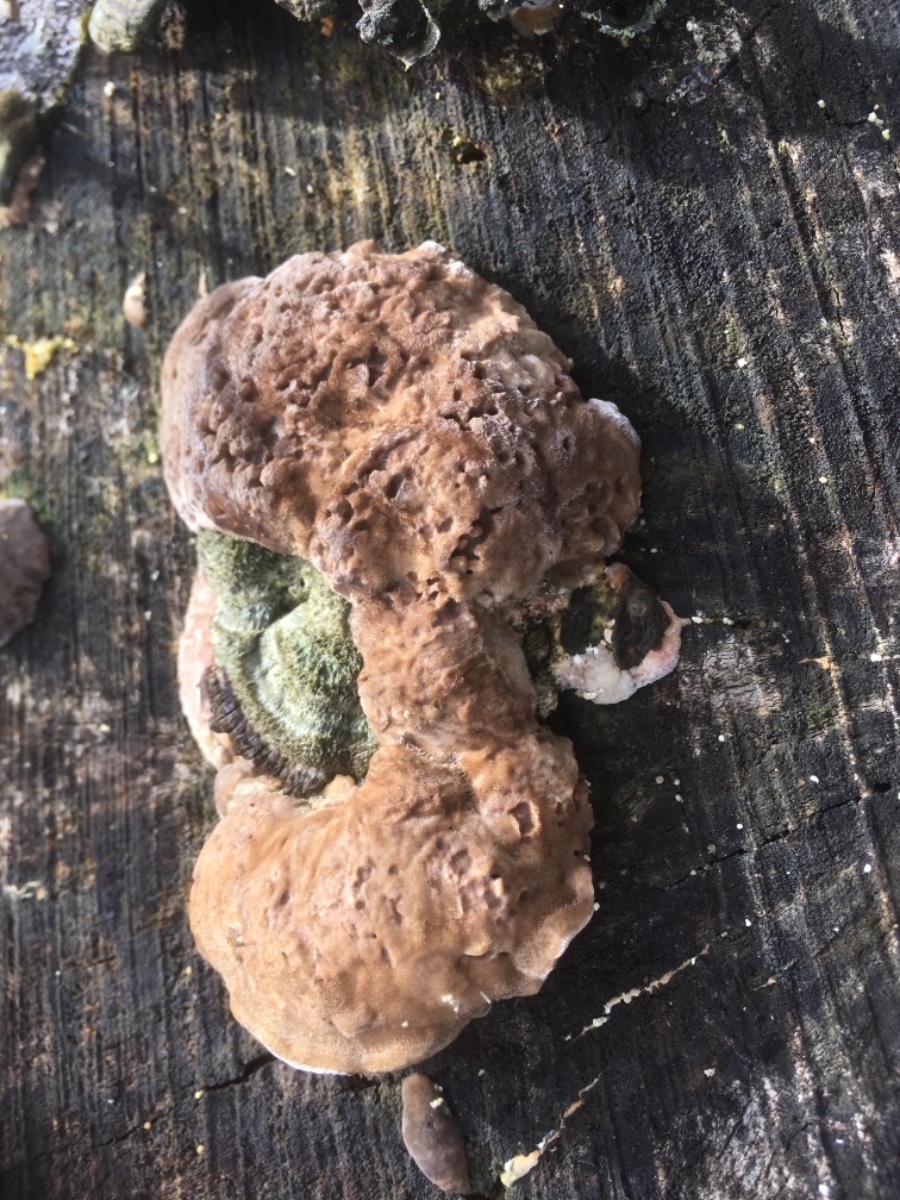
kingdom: Fungi
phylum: Basidiomycota
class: Agaricomycetes
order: Polyporales
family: Polyporaceae
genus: Lenzites
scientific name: Lenzites betulinus
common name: birke-læderporesvamp
